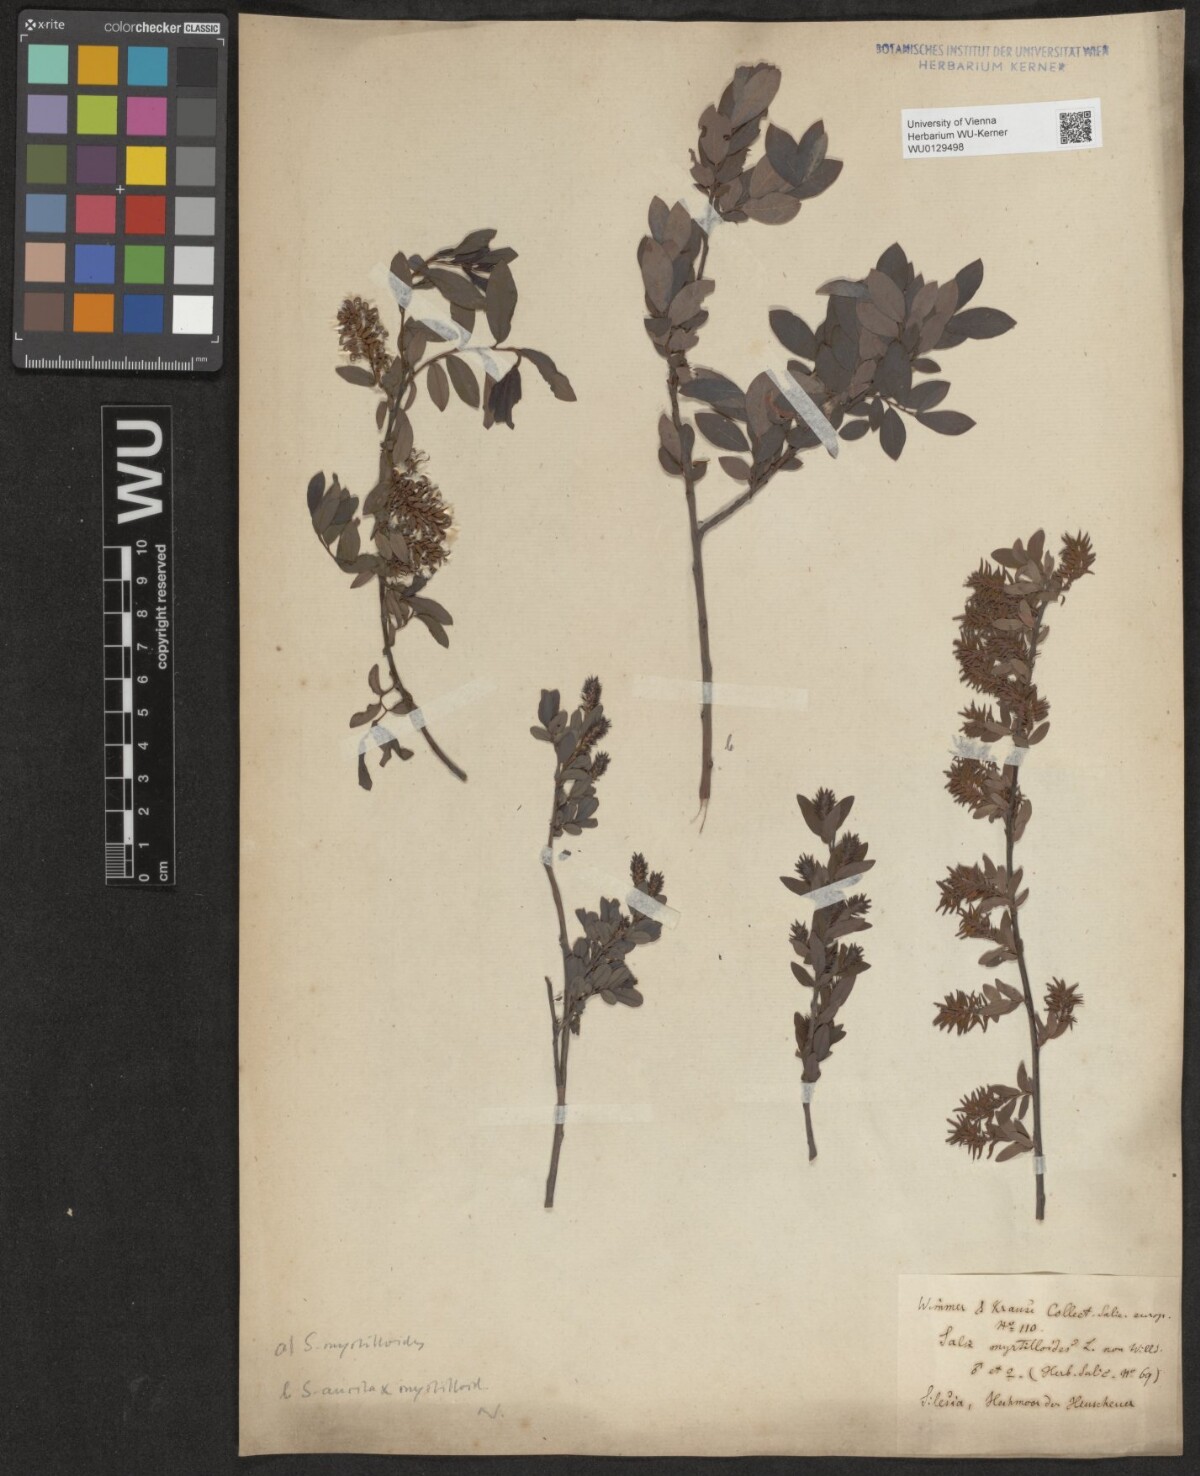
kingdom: Plantae
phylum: Tracheophyta
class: Magnoliopsida
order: Malpighiales
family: Salicaceae
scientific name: Salicaceae
